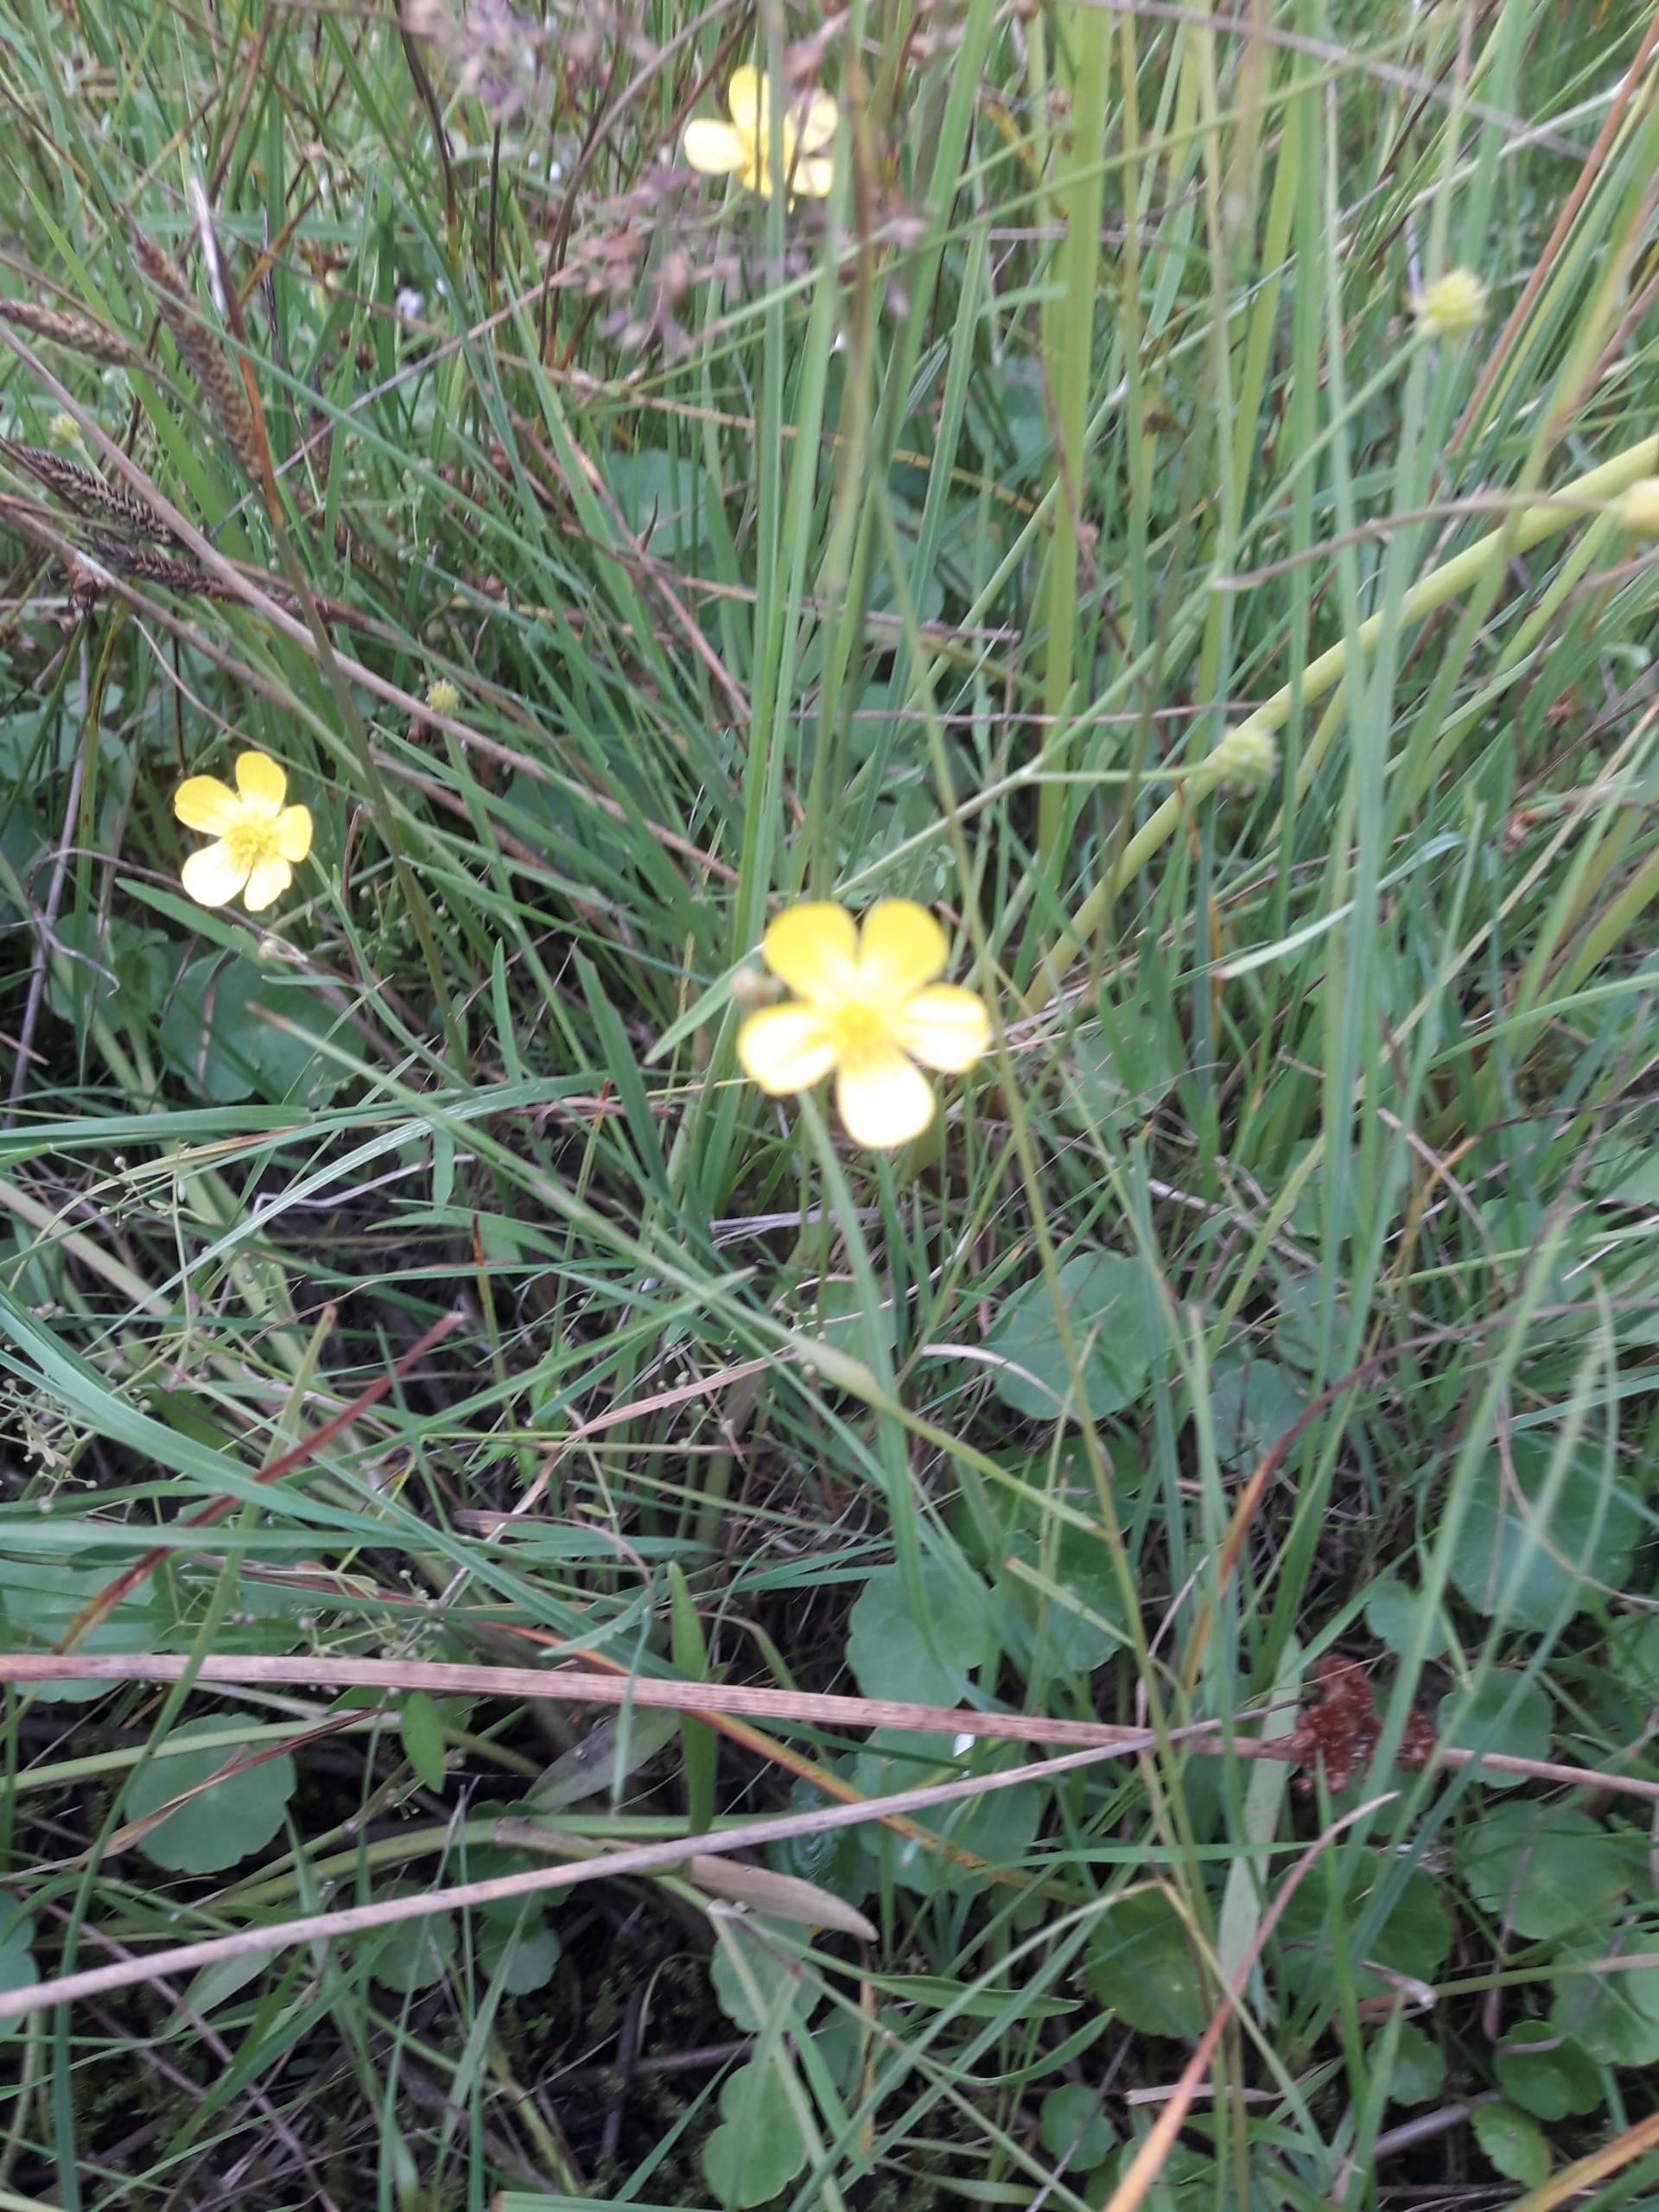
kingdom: Plantae
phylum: Tracheophyta
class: Magnoliopsida
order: Ranunculales
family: Ranunculaceae
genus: Ranunculus
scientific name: Ranunculus flammula
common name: Kær-ranunkel
